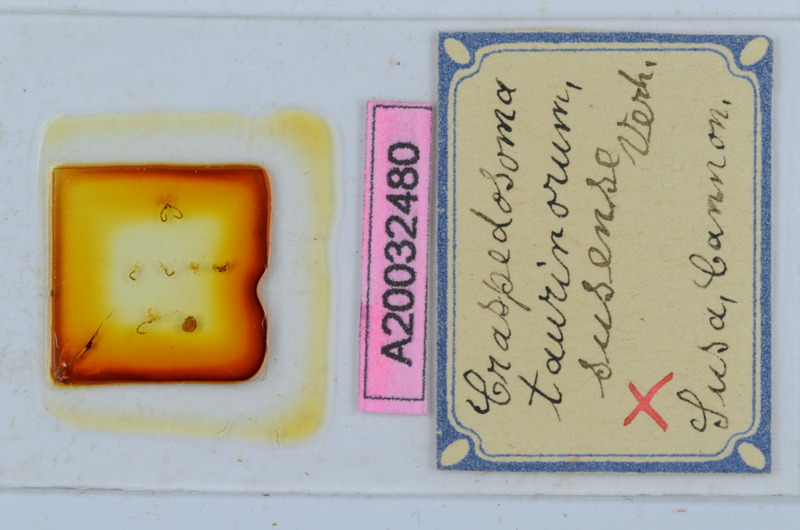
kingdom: Animalia
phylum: Arthropoda
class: Diplopoda
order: Chordeumatida
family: Craspedosomatidae
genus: Craspedosoma
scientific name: Craspedosoma taurinorum
